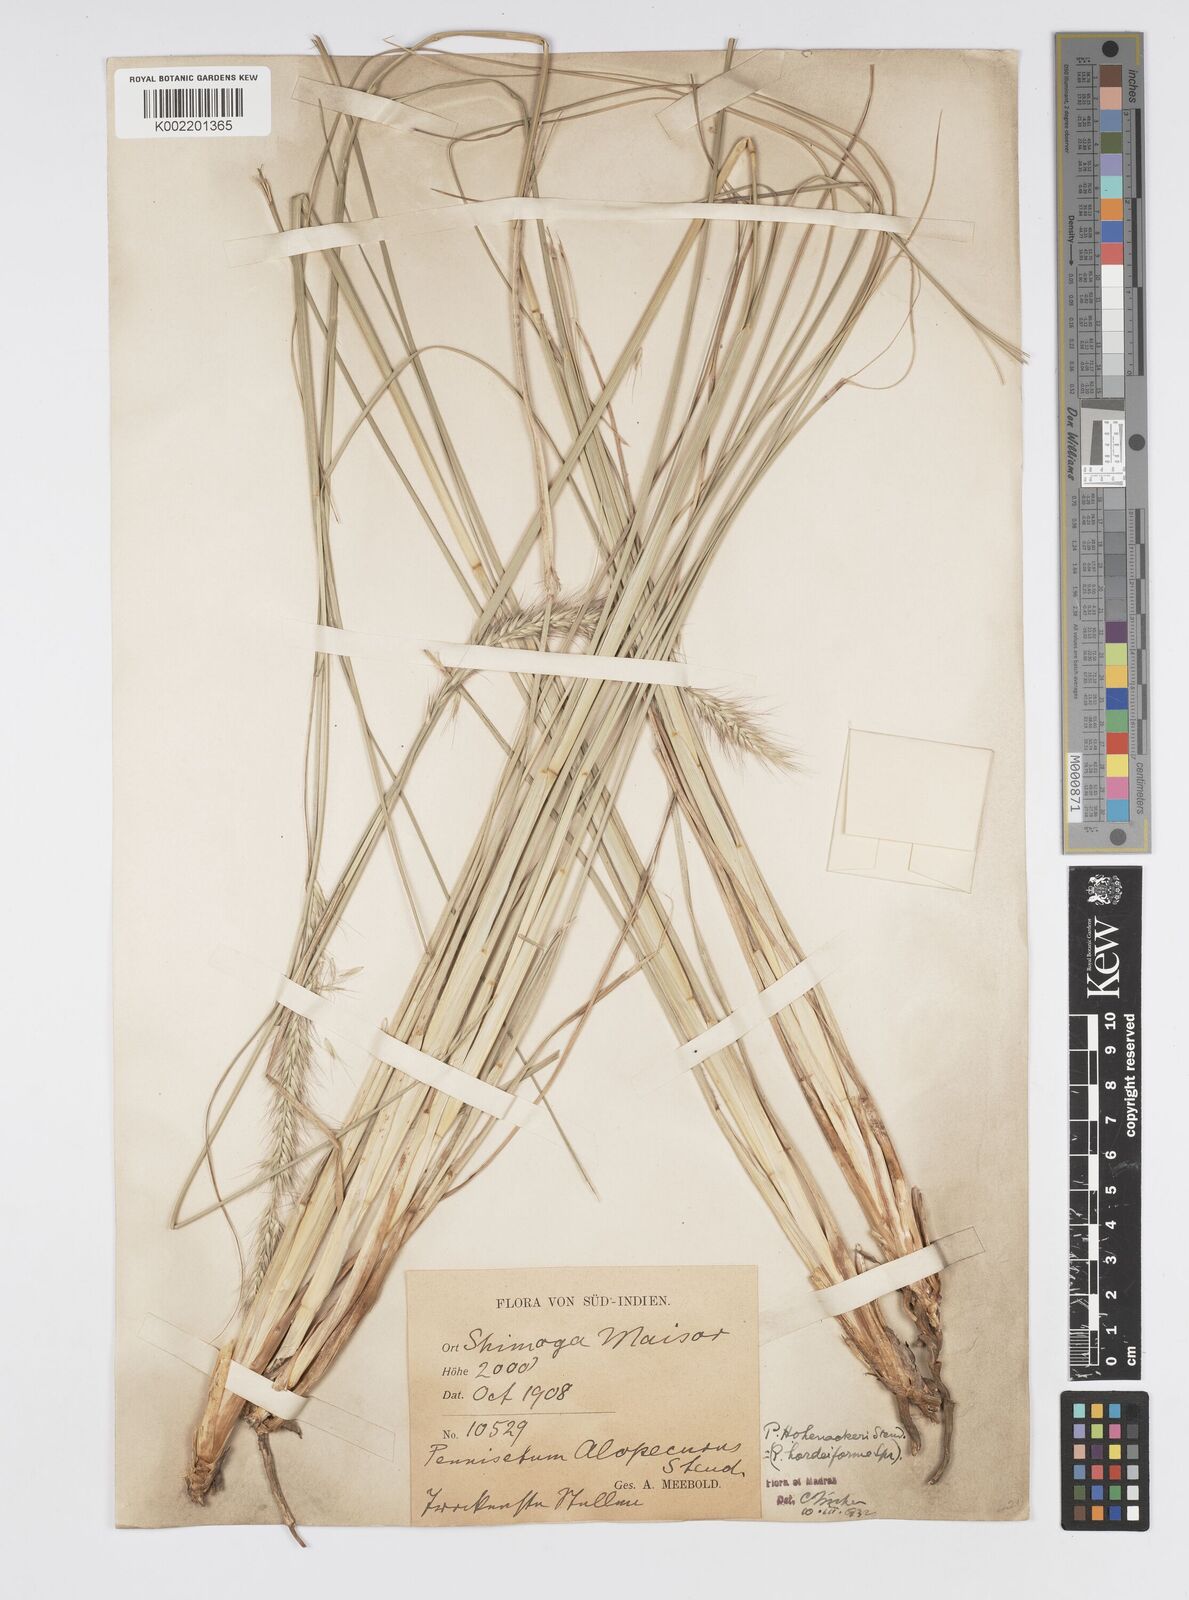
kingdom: Plantae
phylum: Tracheophyta
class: Liliopsida
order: Poales
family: Poaceae
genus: Cenchrus
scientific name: Cenchrus hohenackeri
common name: Moya grass
